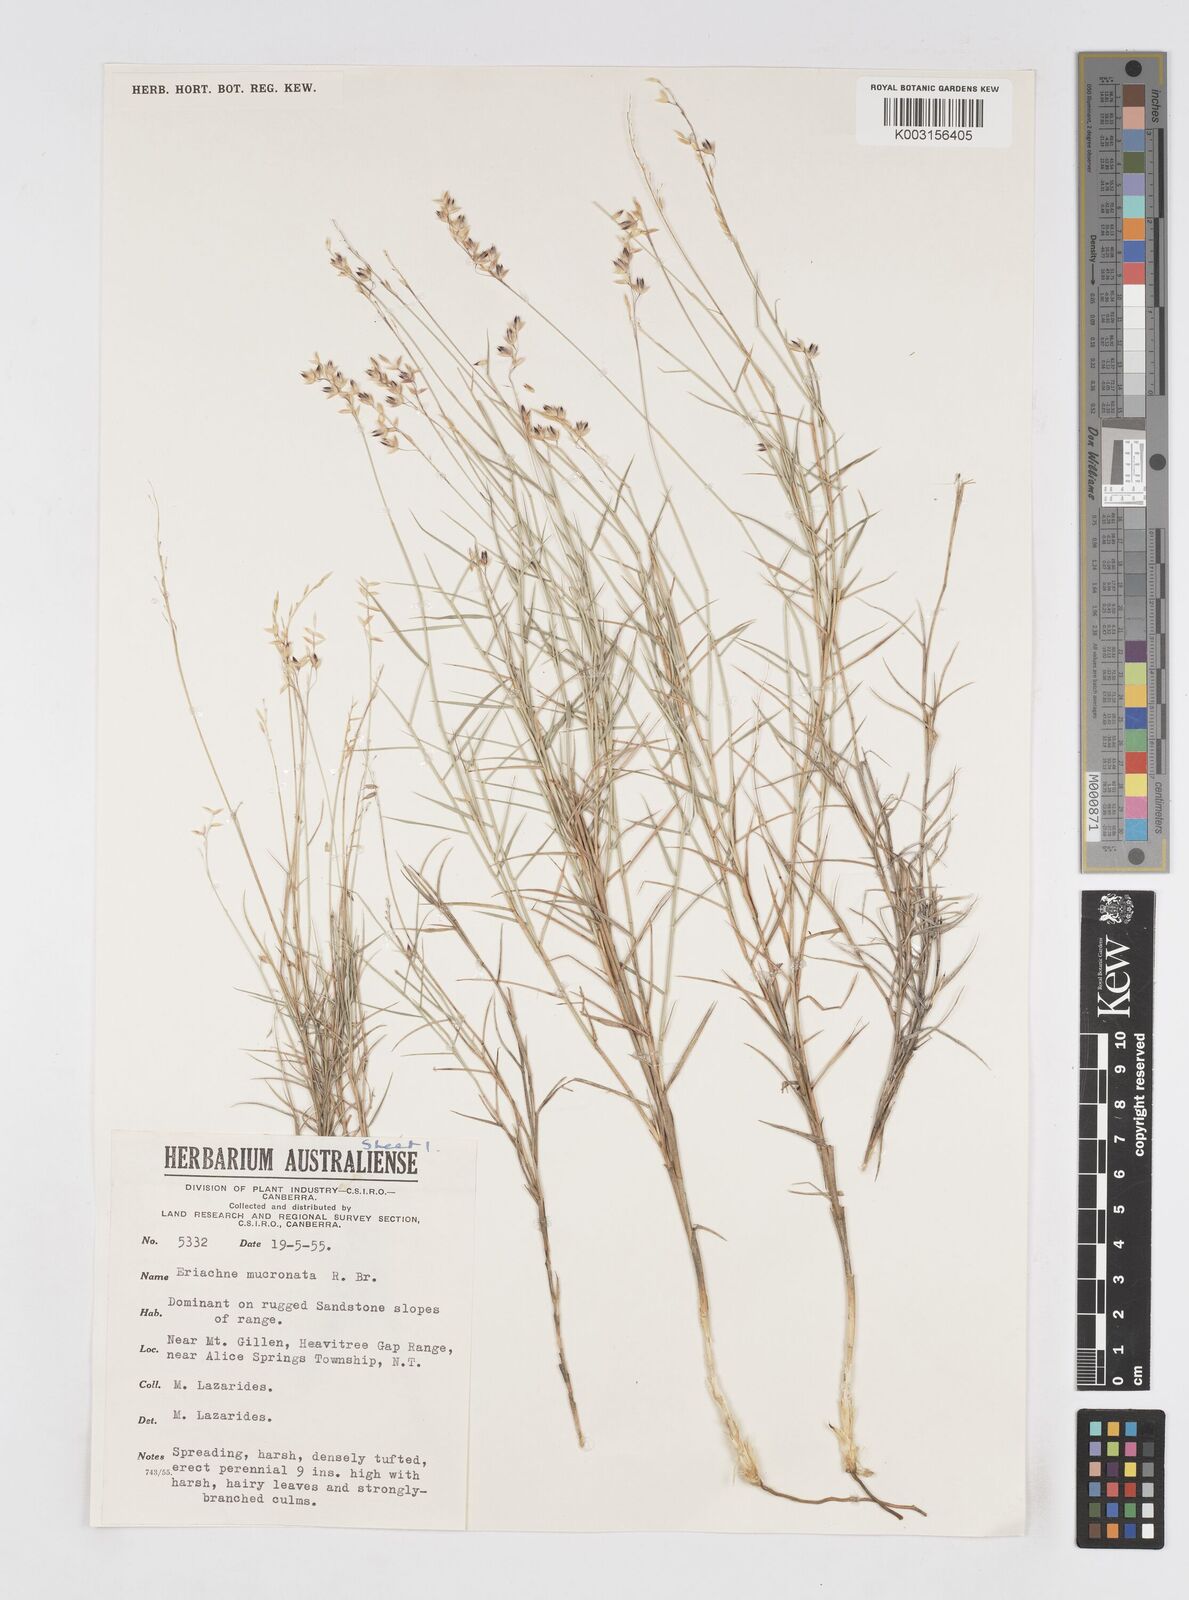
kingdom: Plantae
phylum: Tracheophyta
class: Liliopsida
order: Poales
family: Poaceae
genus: Eriachne
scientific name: Eriachne mucronata
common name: Mountain wanderrie grass
